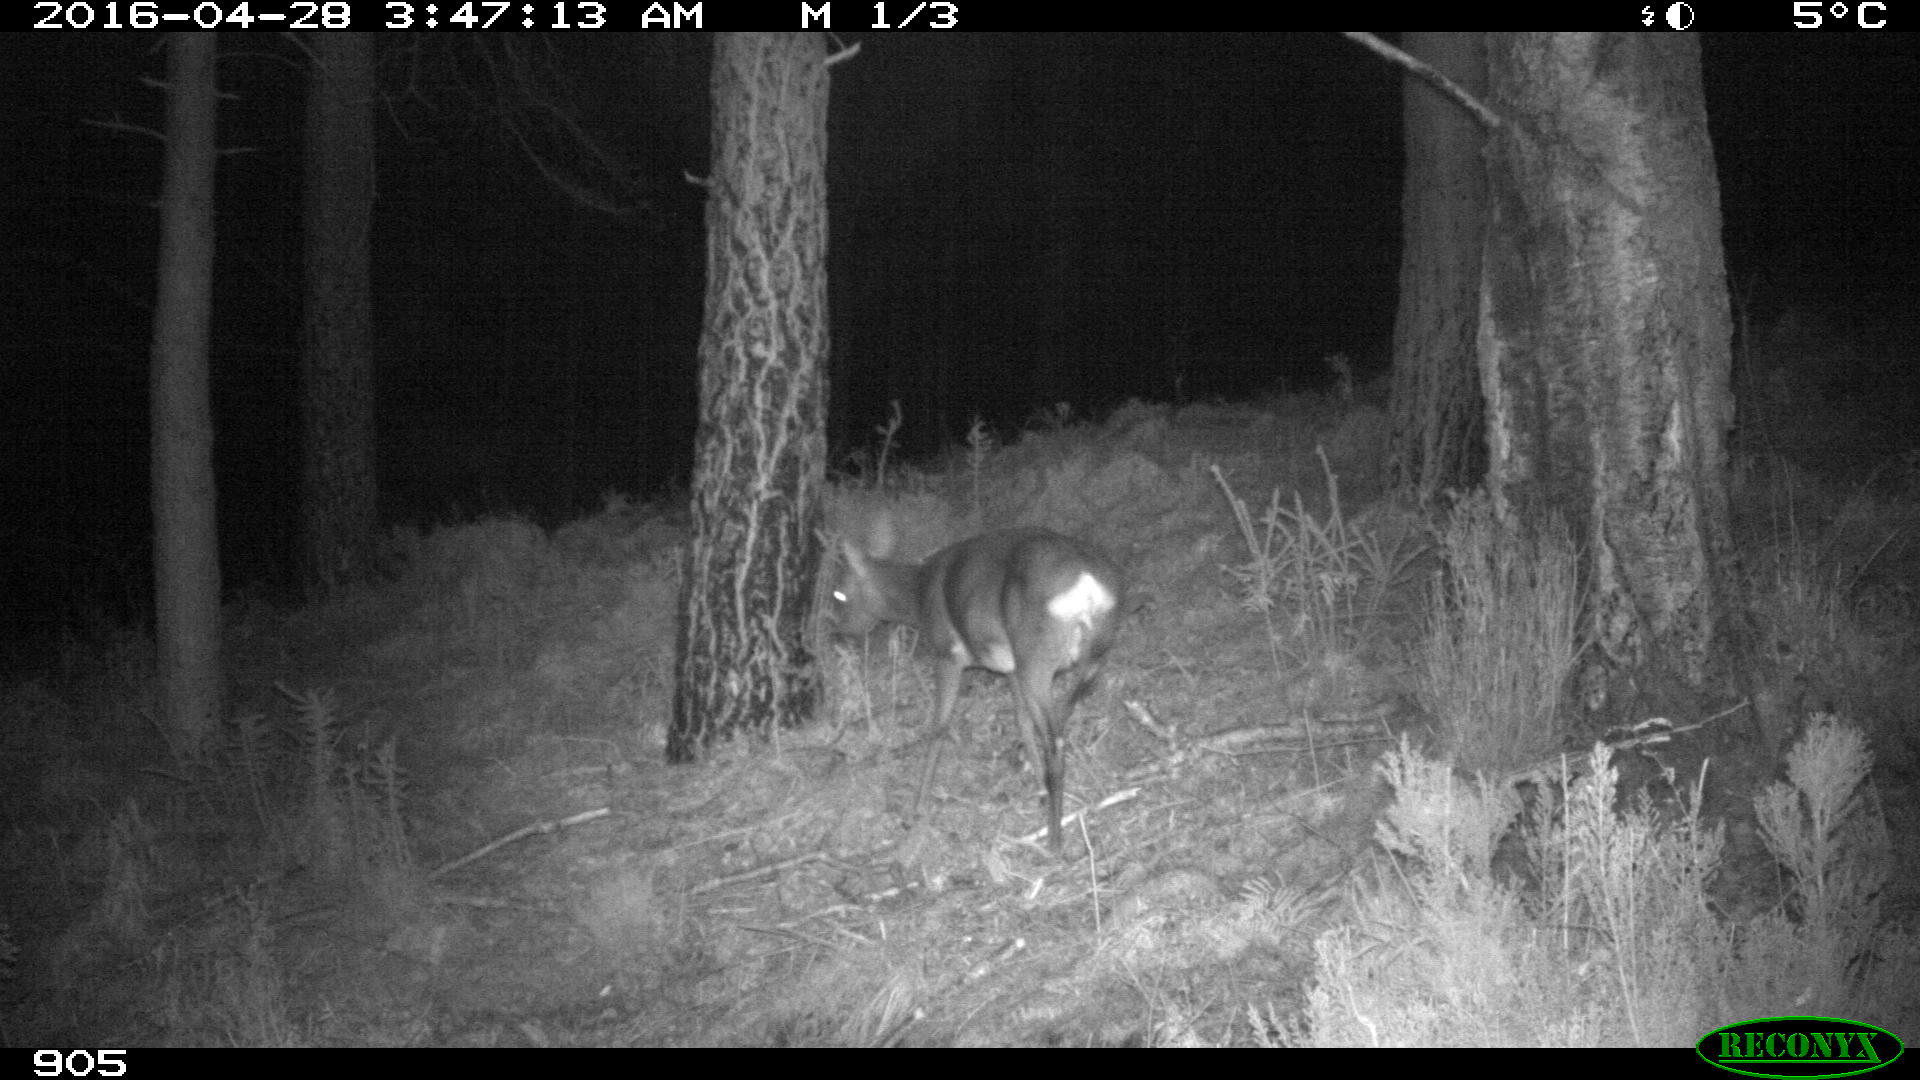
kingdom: Animalia
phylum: Chordata
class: Mammalia
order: Artiodactyla
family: Cervidae
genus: Capreolus
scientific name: Capreolus capreolus
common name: Western roe deer
